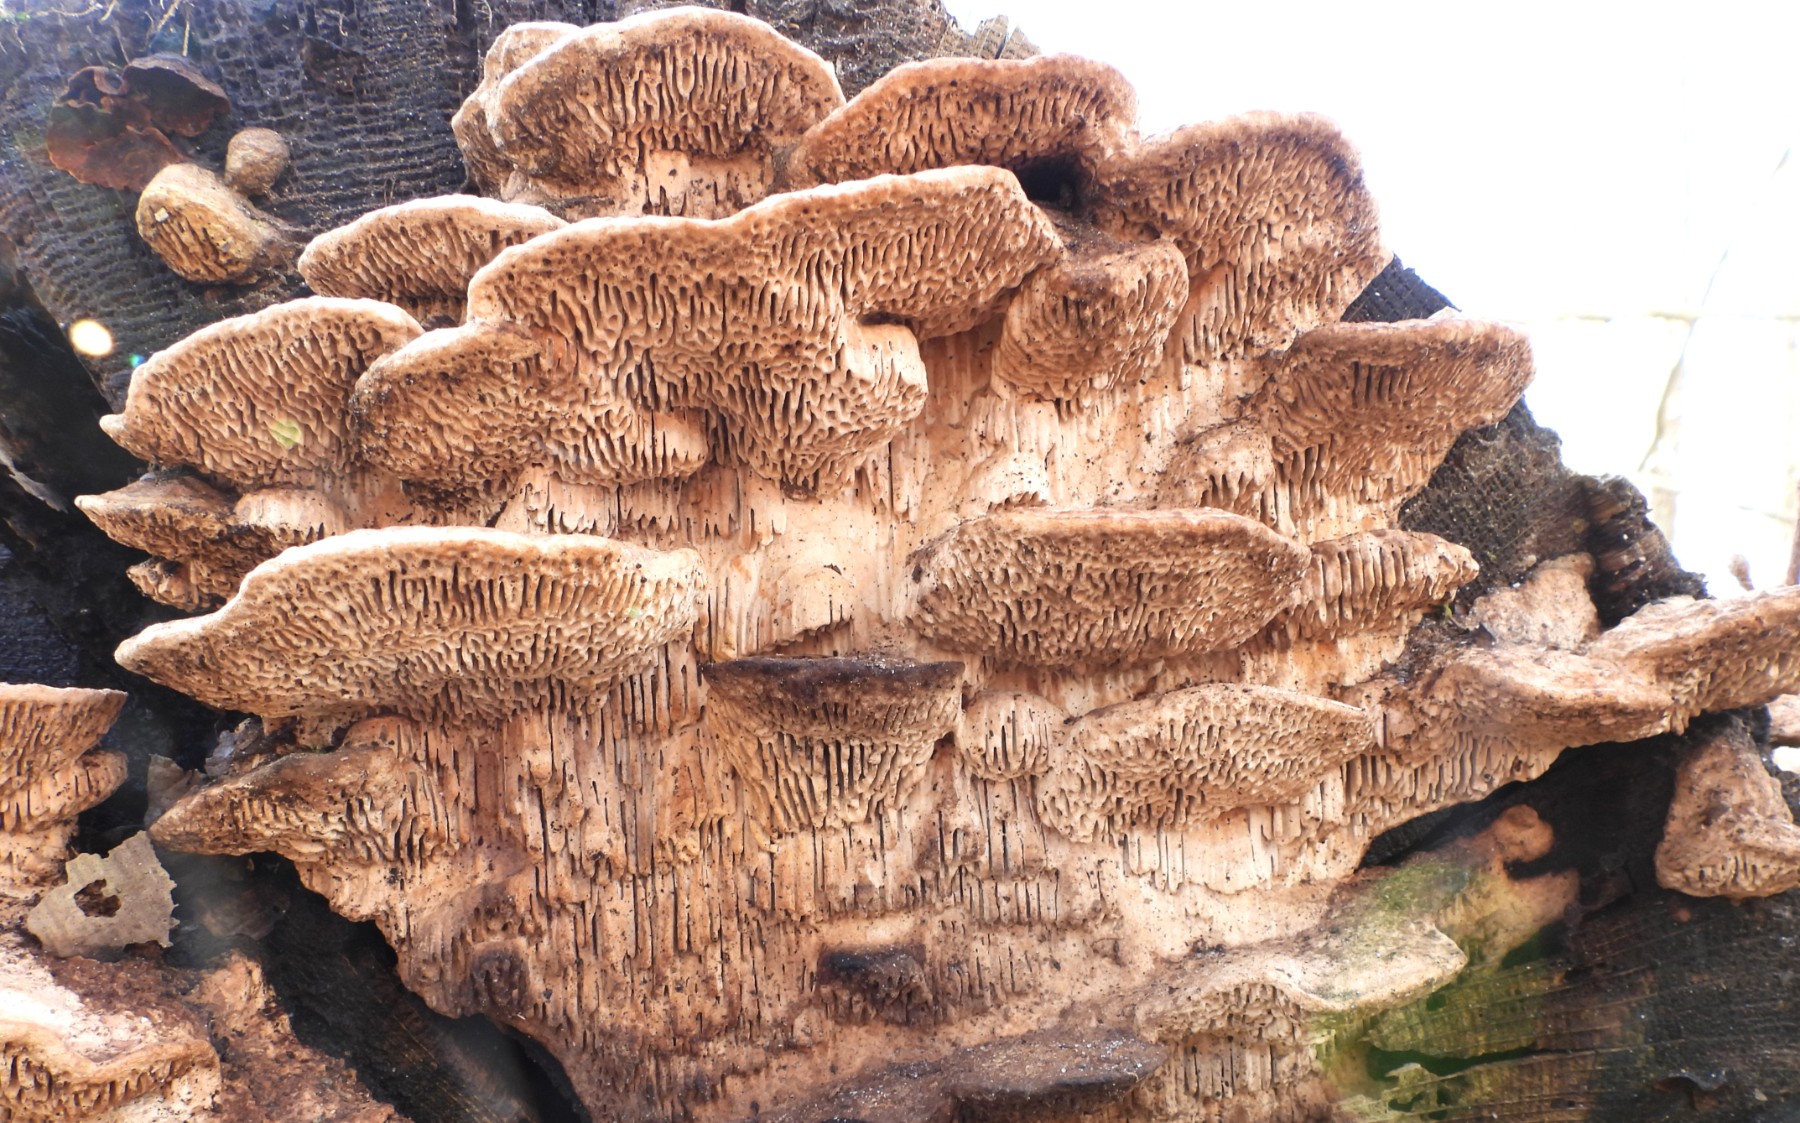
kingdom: Fungi
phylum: Basidiomycota
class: Agaricomycetes
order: Polyporales
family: Fomitopsidaceae
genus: Daedalea
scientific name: Daedalea quercina
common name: ege-labyrintsvamp
